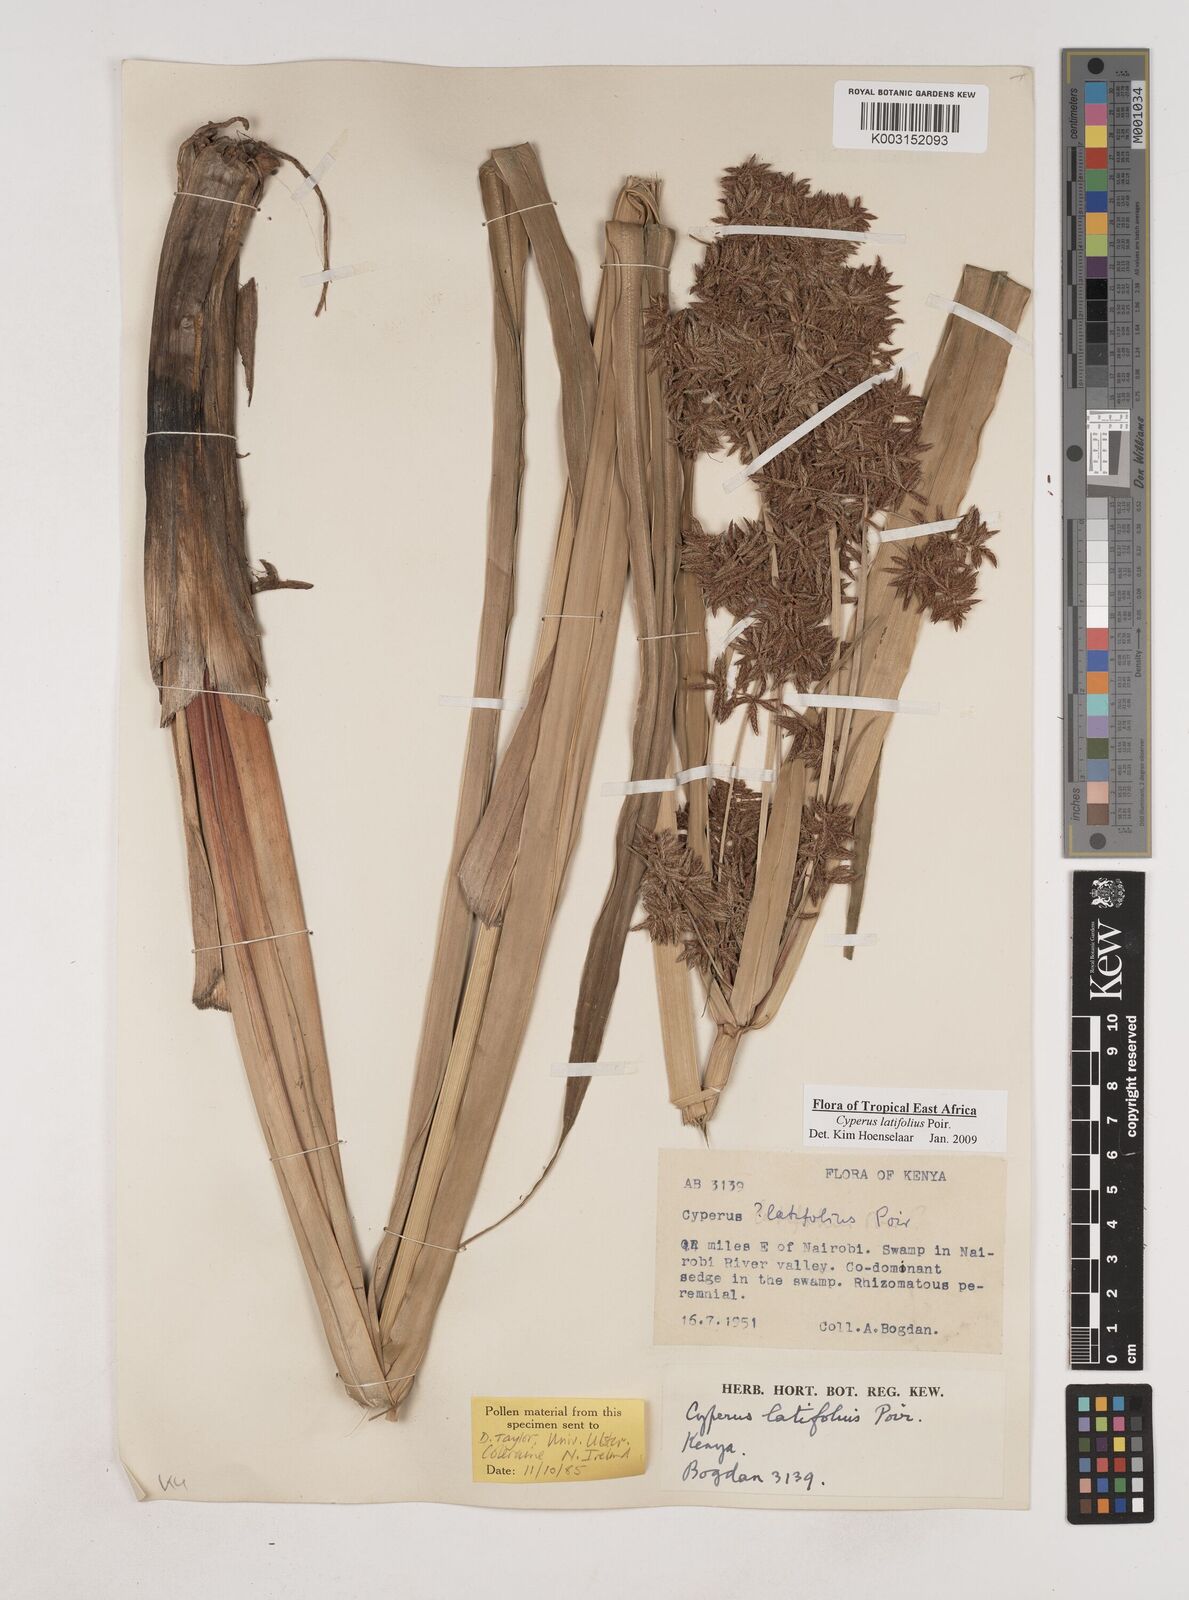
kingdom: Plantae
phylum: Tracheophyta
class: Liliopsida
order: Poales
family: Cyperaceae
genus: Cyperus
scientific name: Cyperus latifolius
